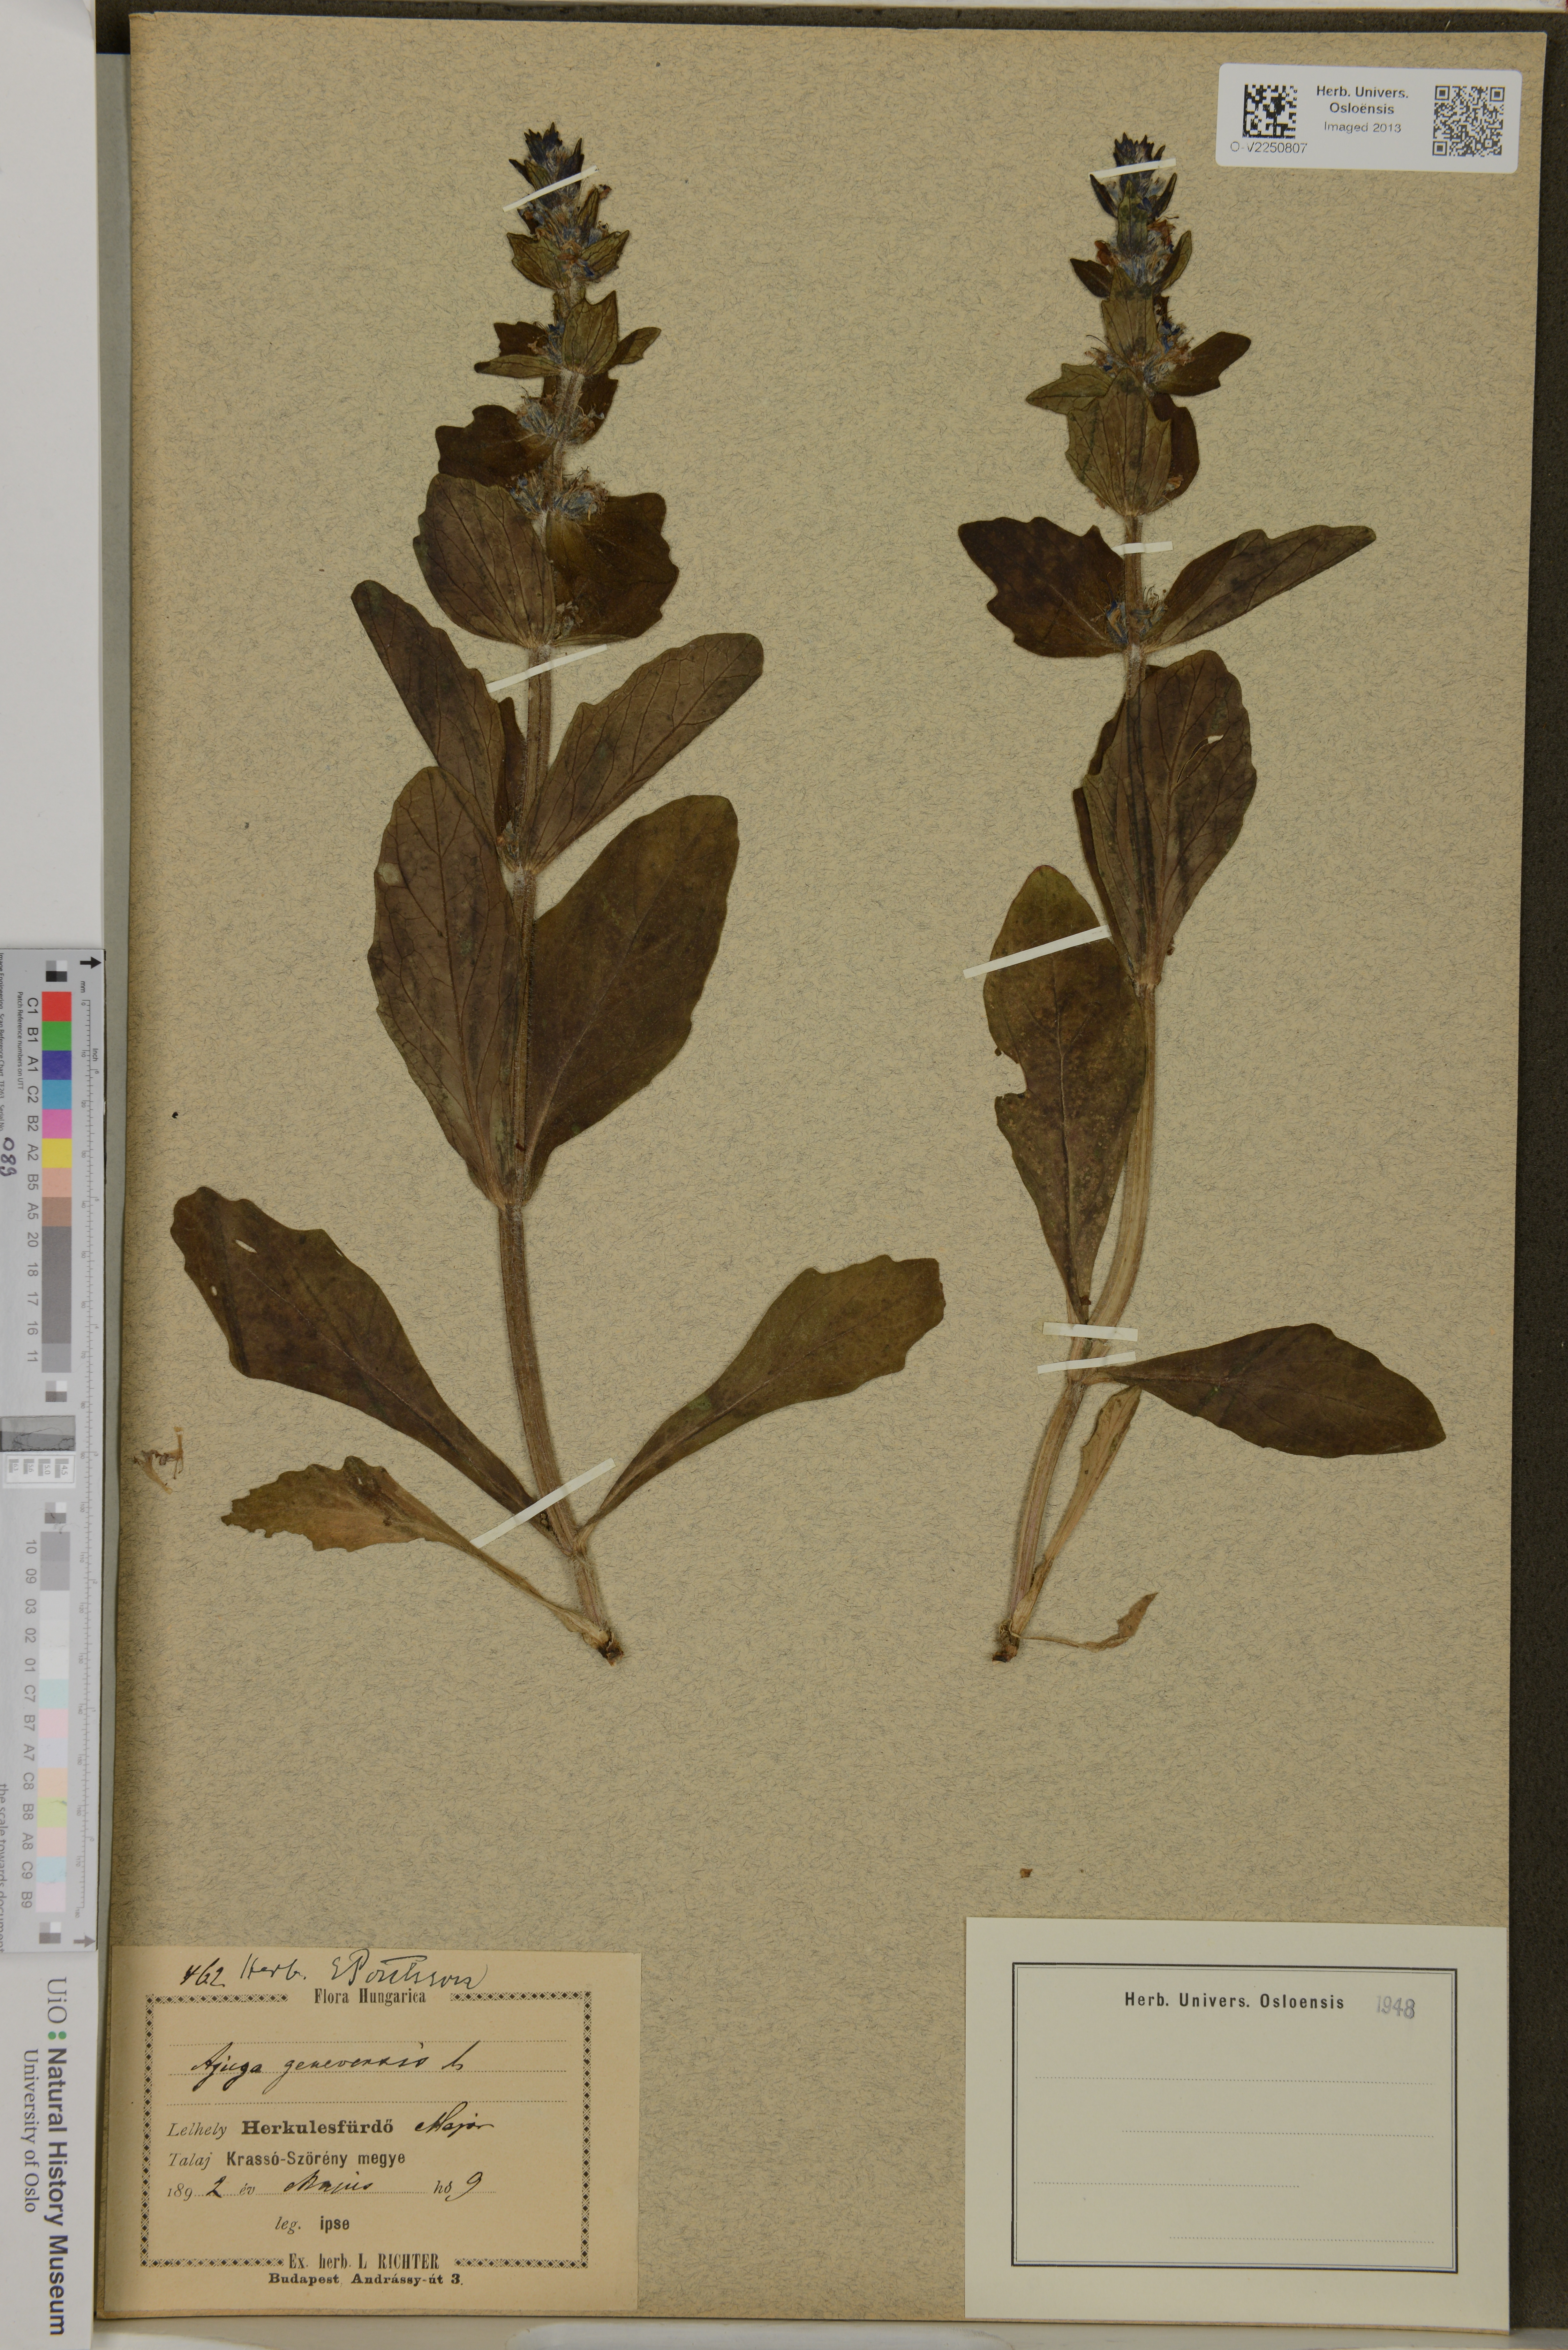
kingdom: Plantae
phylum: Tracheophyta
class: Magnoliopsida
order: Lamiales
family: Lamiaceae
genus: Ajuga
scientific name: Ajuga genevensis
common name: Blue bugle
